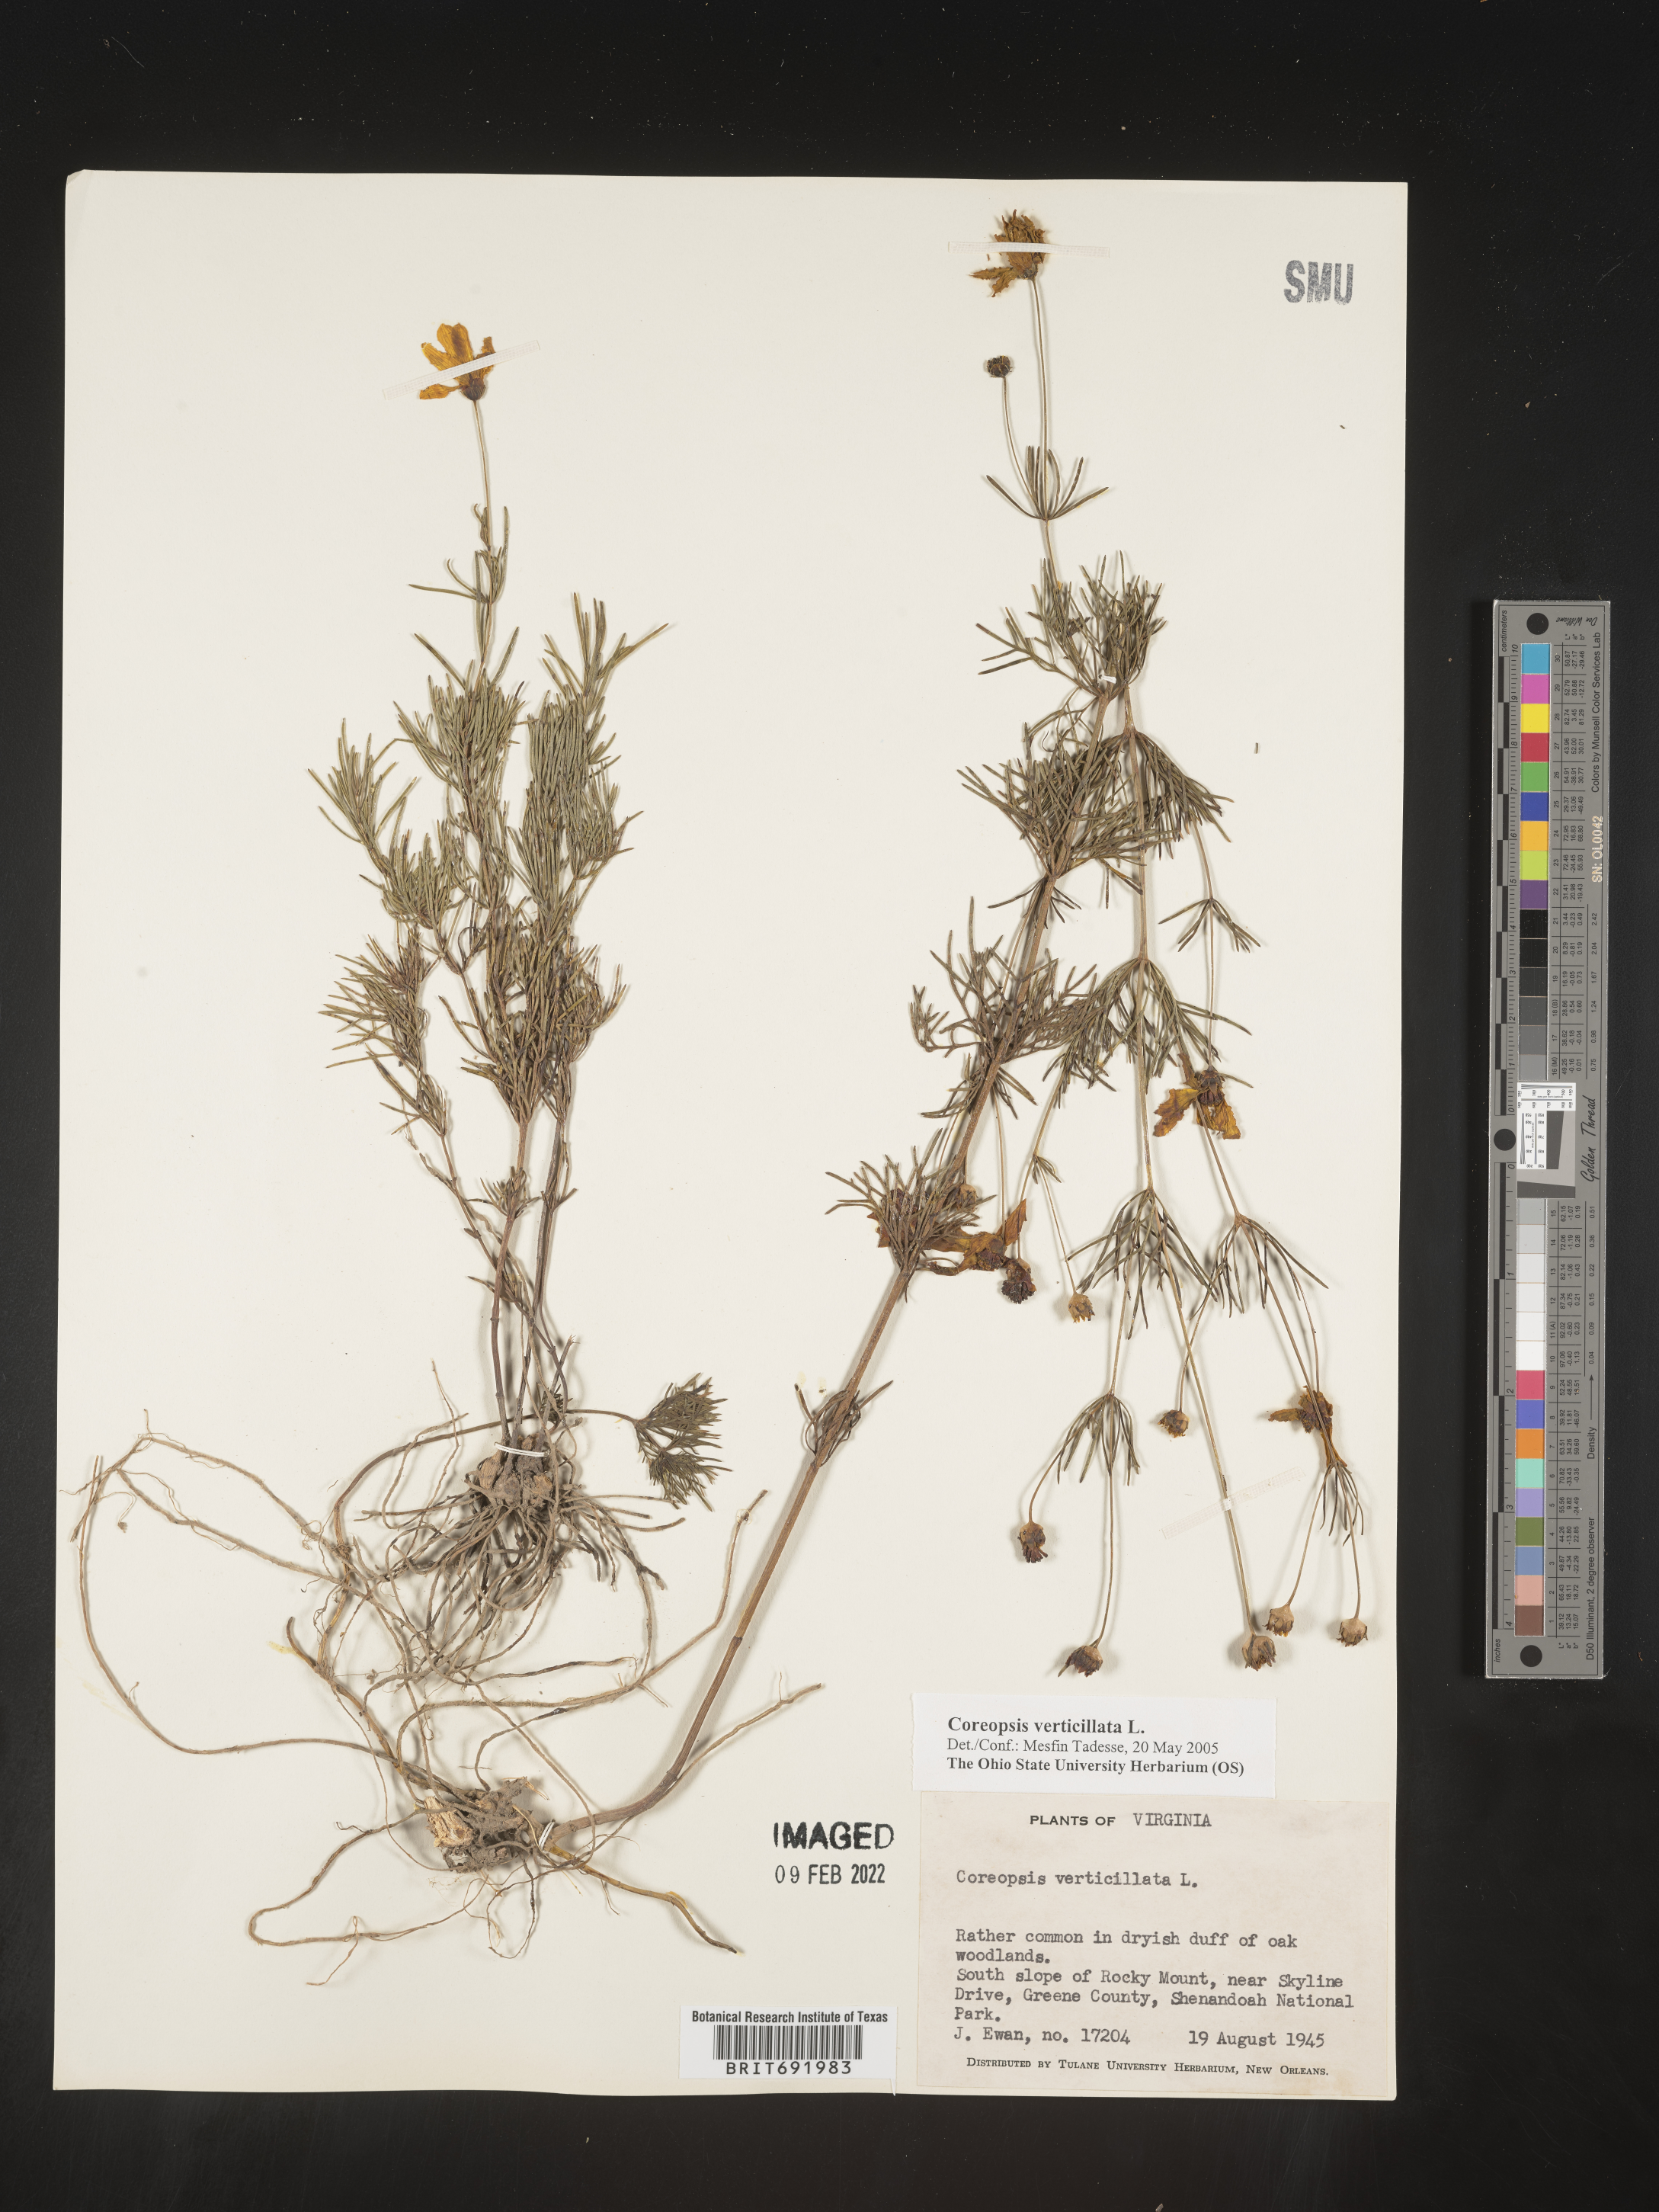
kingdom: Plantae
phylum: Tracheophyta
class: Magnoliopsida
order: Asterales
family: Asteraceae
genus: Coreopsis
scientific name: Coreopsis verticillata
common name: Whorled tickseed
